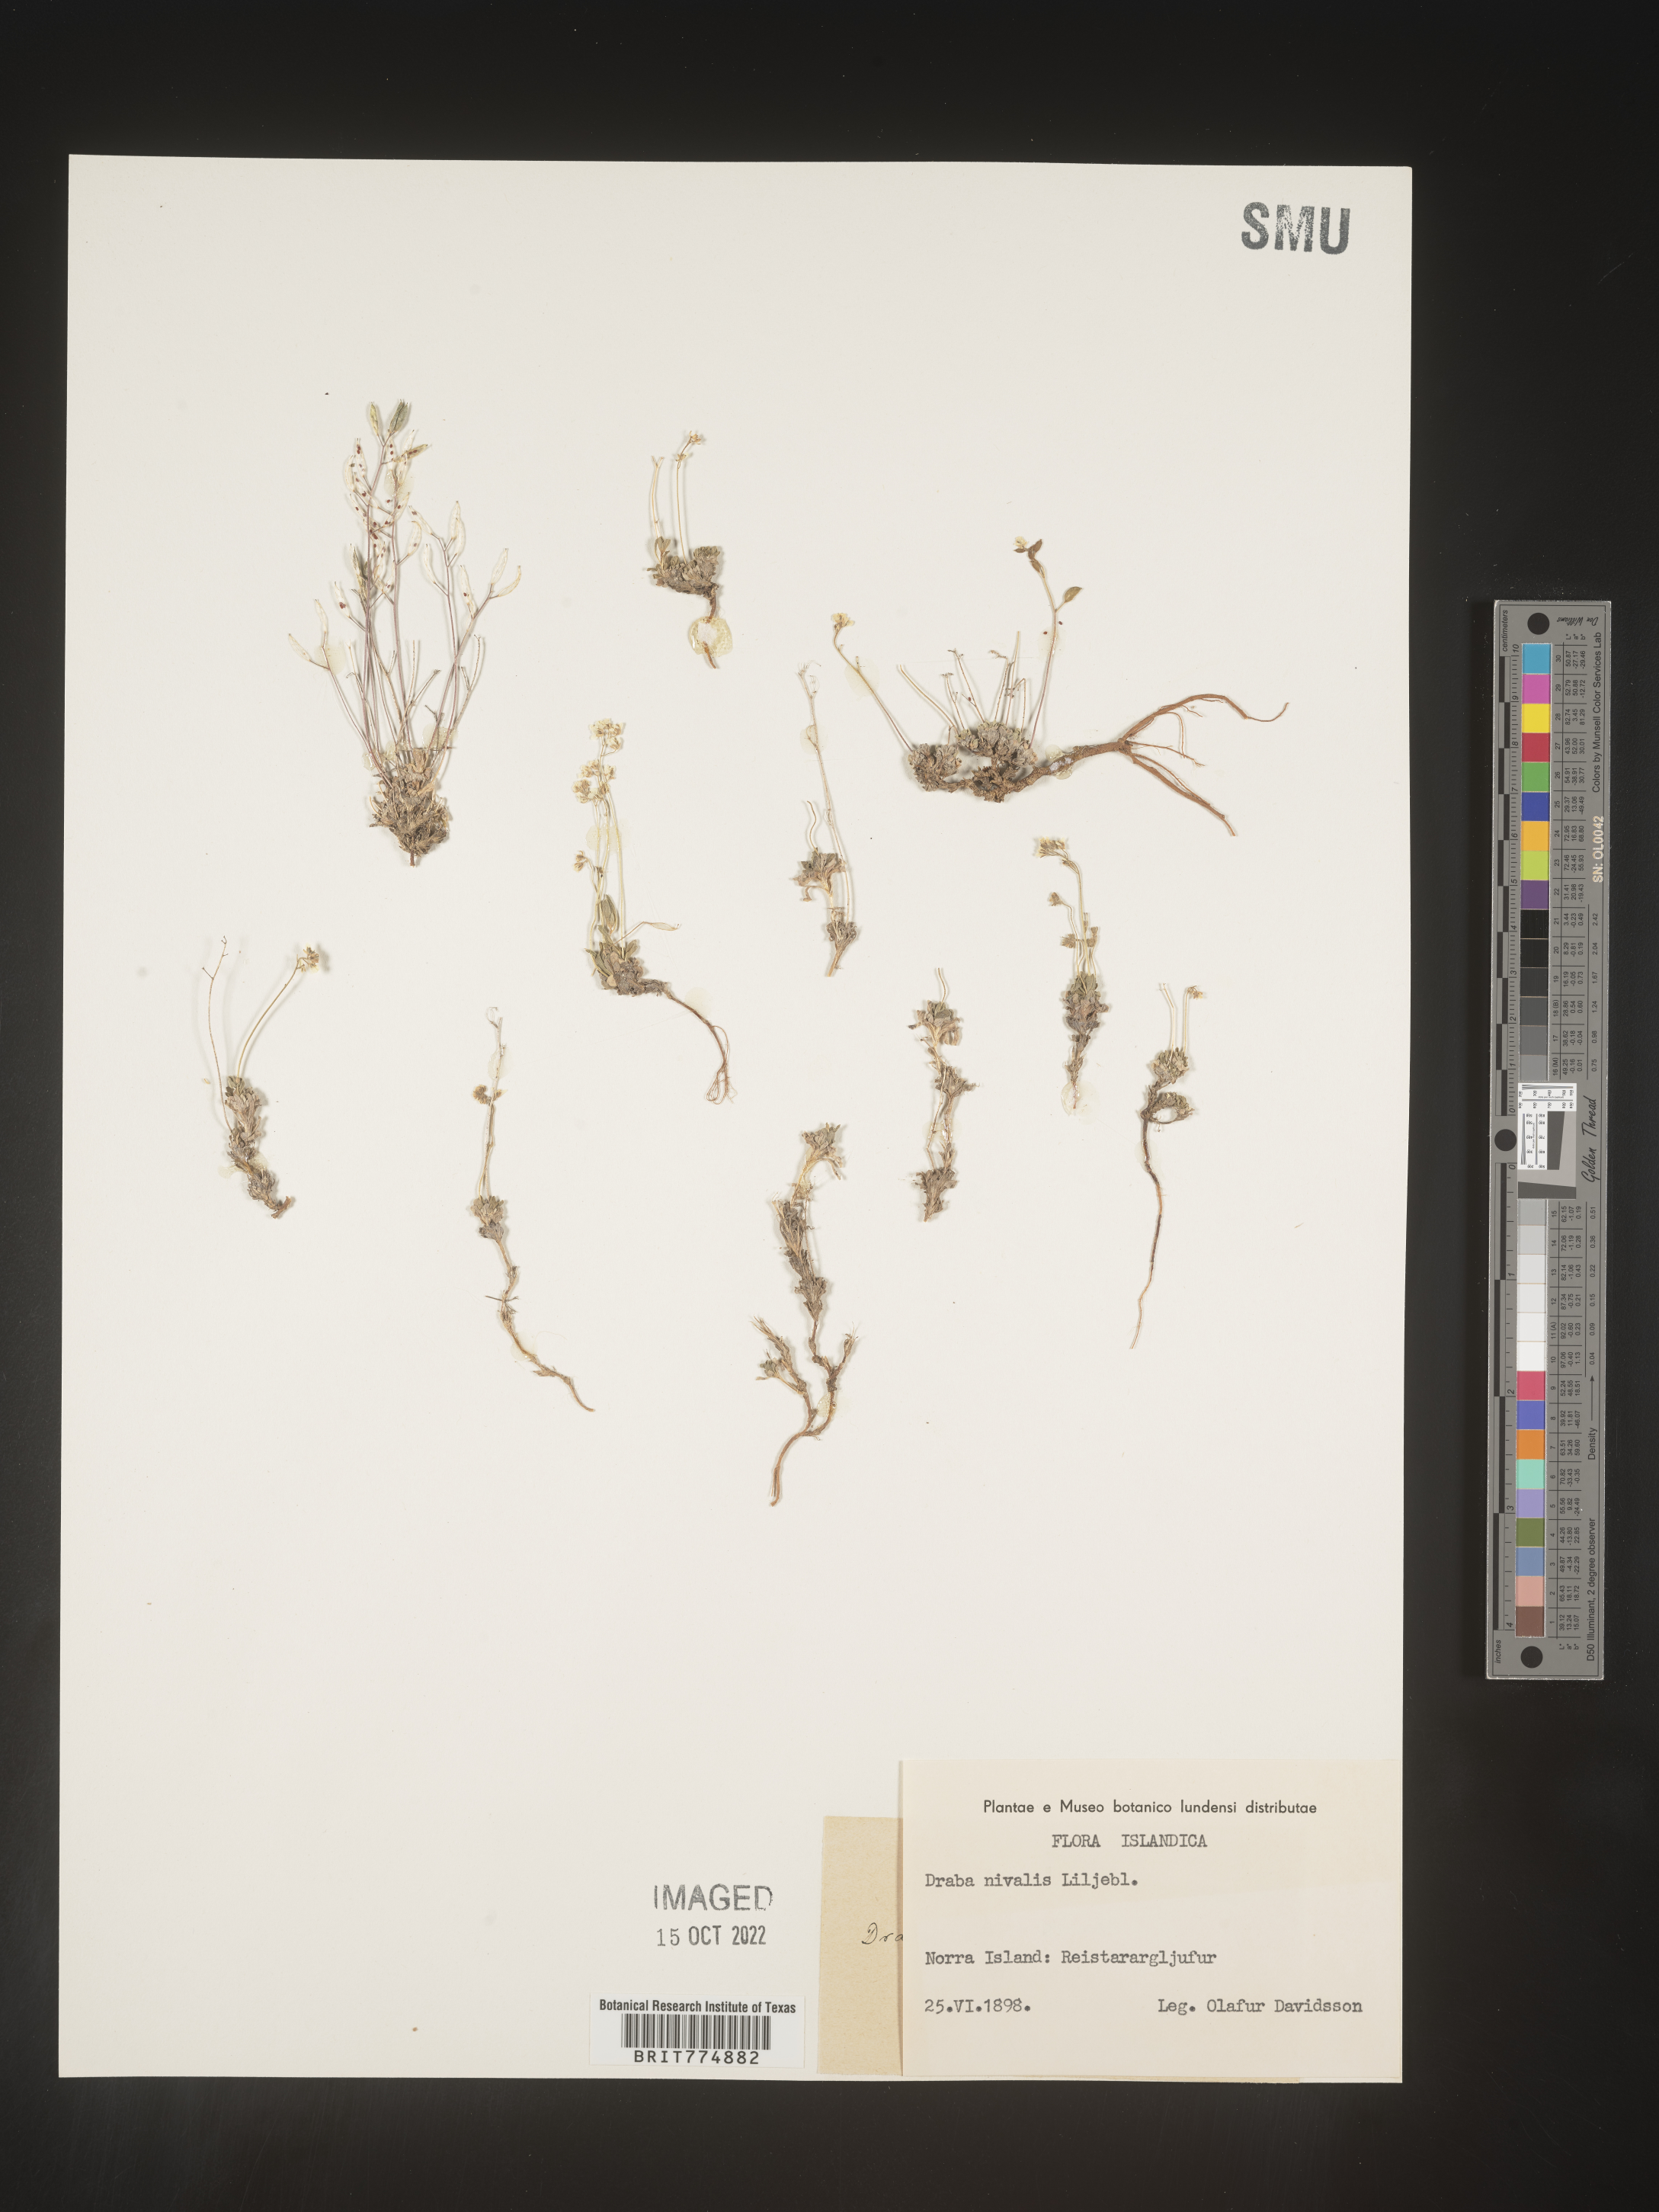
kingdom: Plantae
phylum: Tracheophyta
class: Magnoliopsida
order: Brassicales
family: Brassicaceae
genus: Draba
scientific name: Draba
